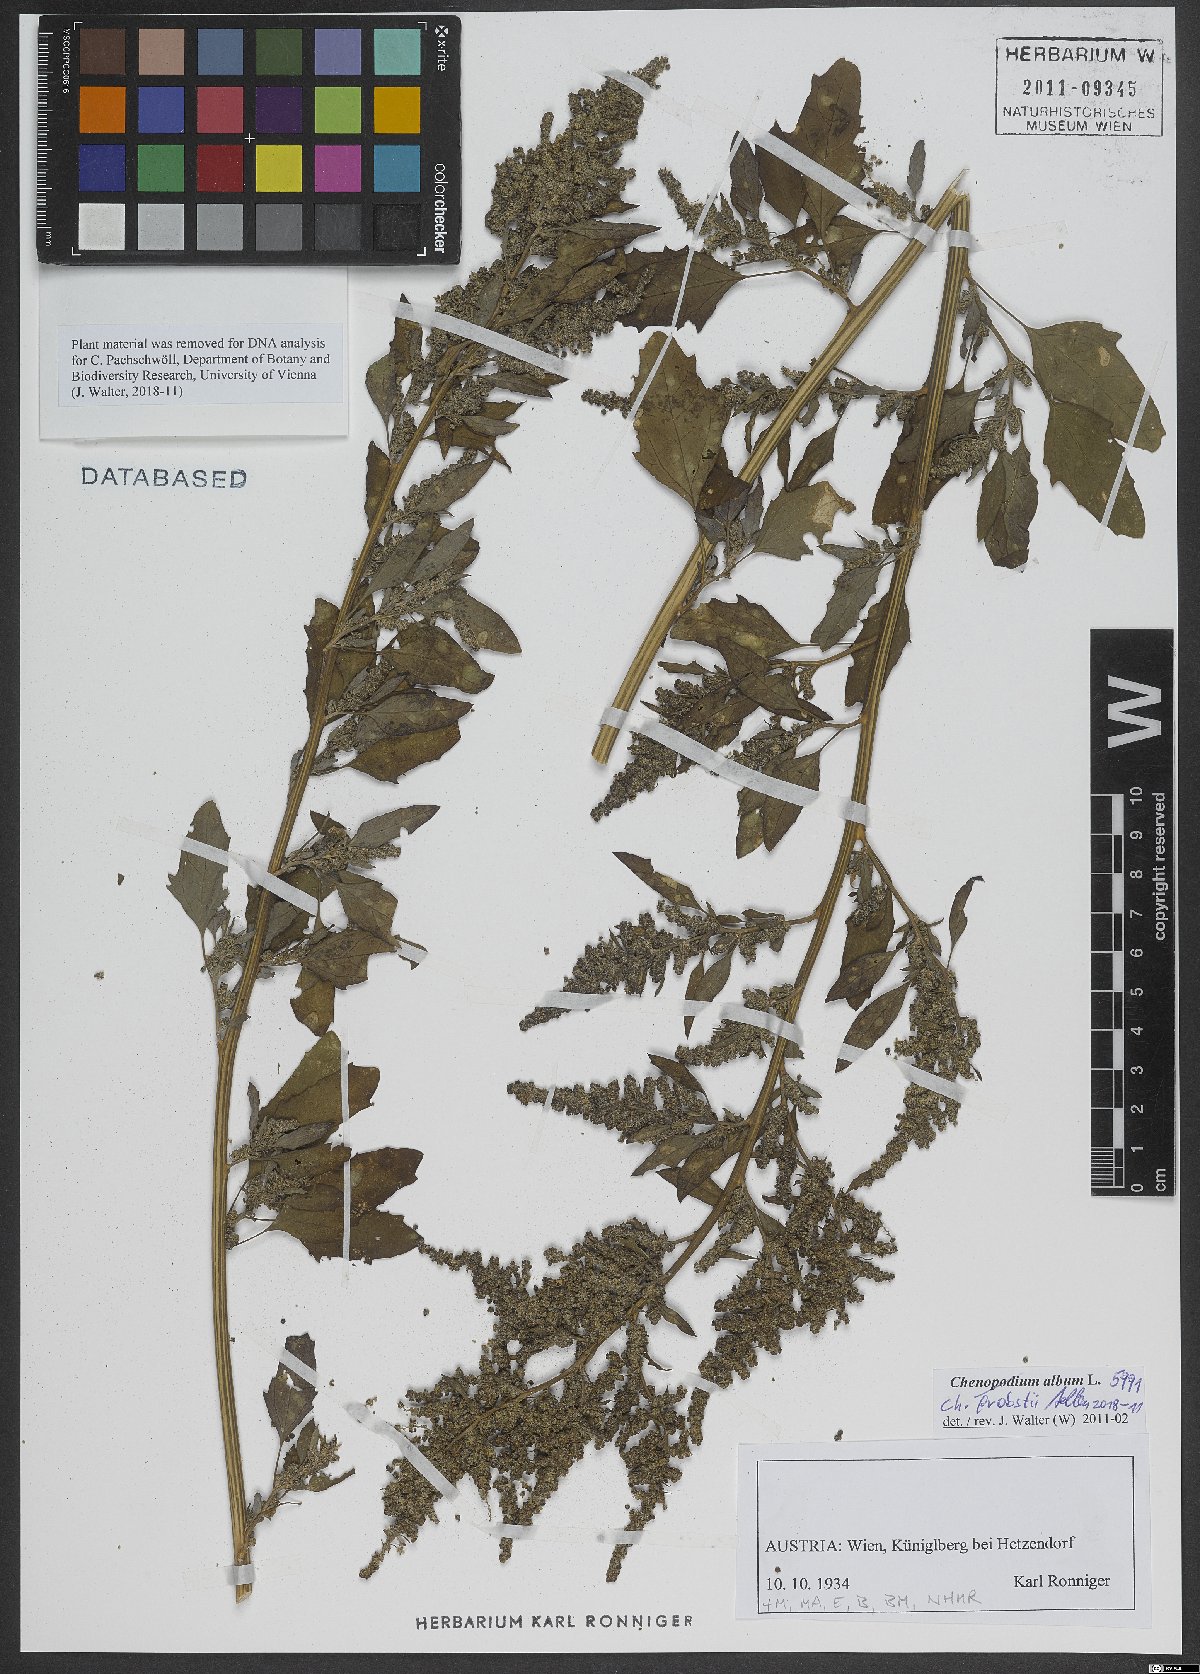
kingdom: Plantae
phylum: Tracheophyta
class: Magnoliopsida
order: Caryophyllales
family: Amaranthaceae
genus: Chenopodium
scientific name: Chenopodium probstii
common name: Probst's goosefoot
